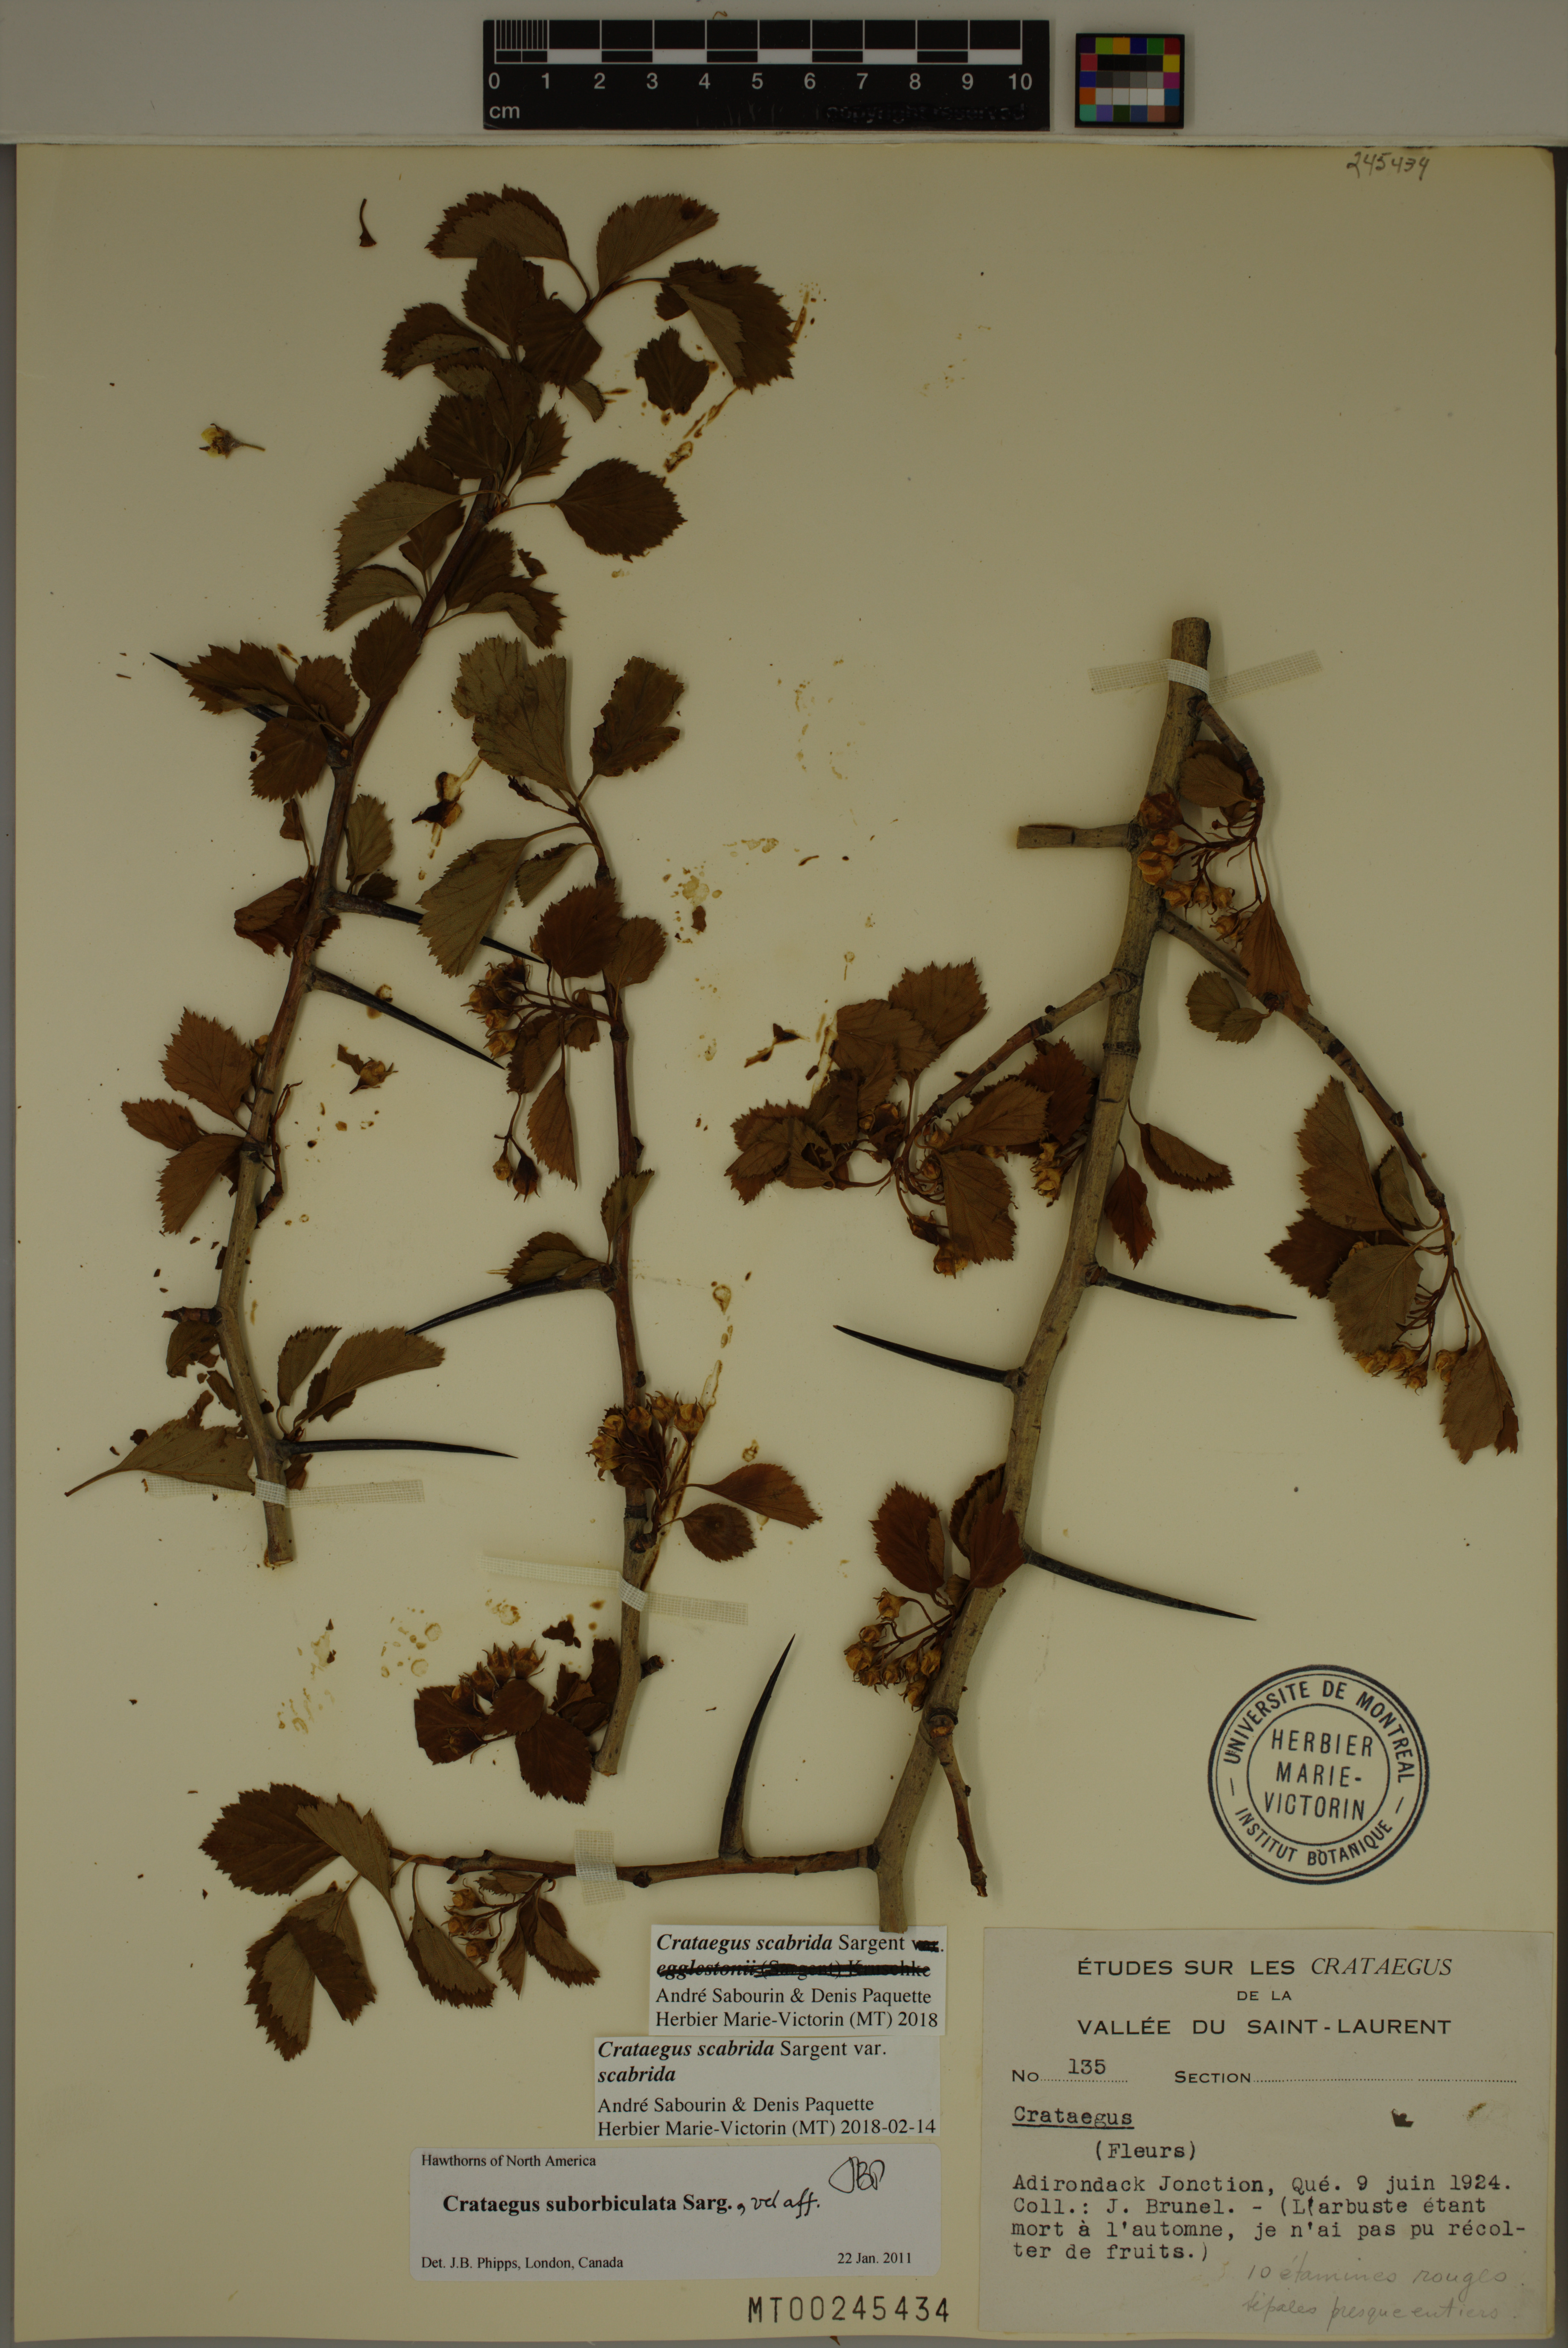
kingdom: Plantae
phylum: Tracheophyta
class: Magnoliopsida
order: Rosales
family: Rosaceae
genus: Crataegus
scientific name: Crataegus scabrida
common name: Rough hawthorn
